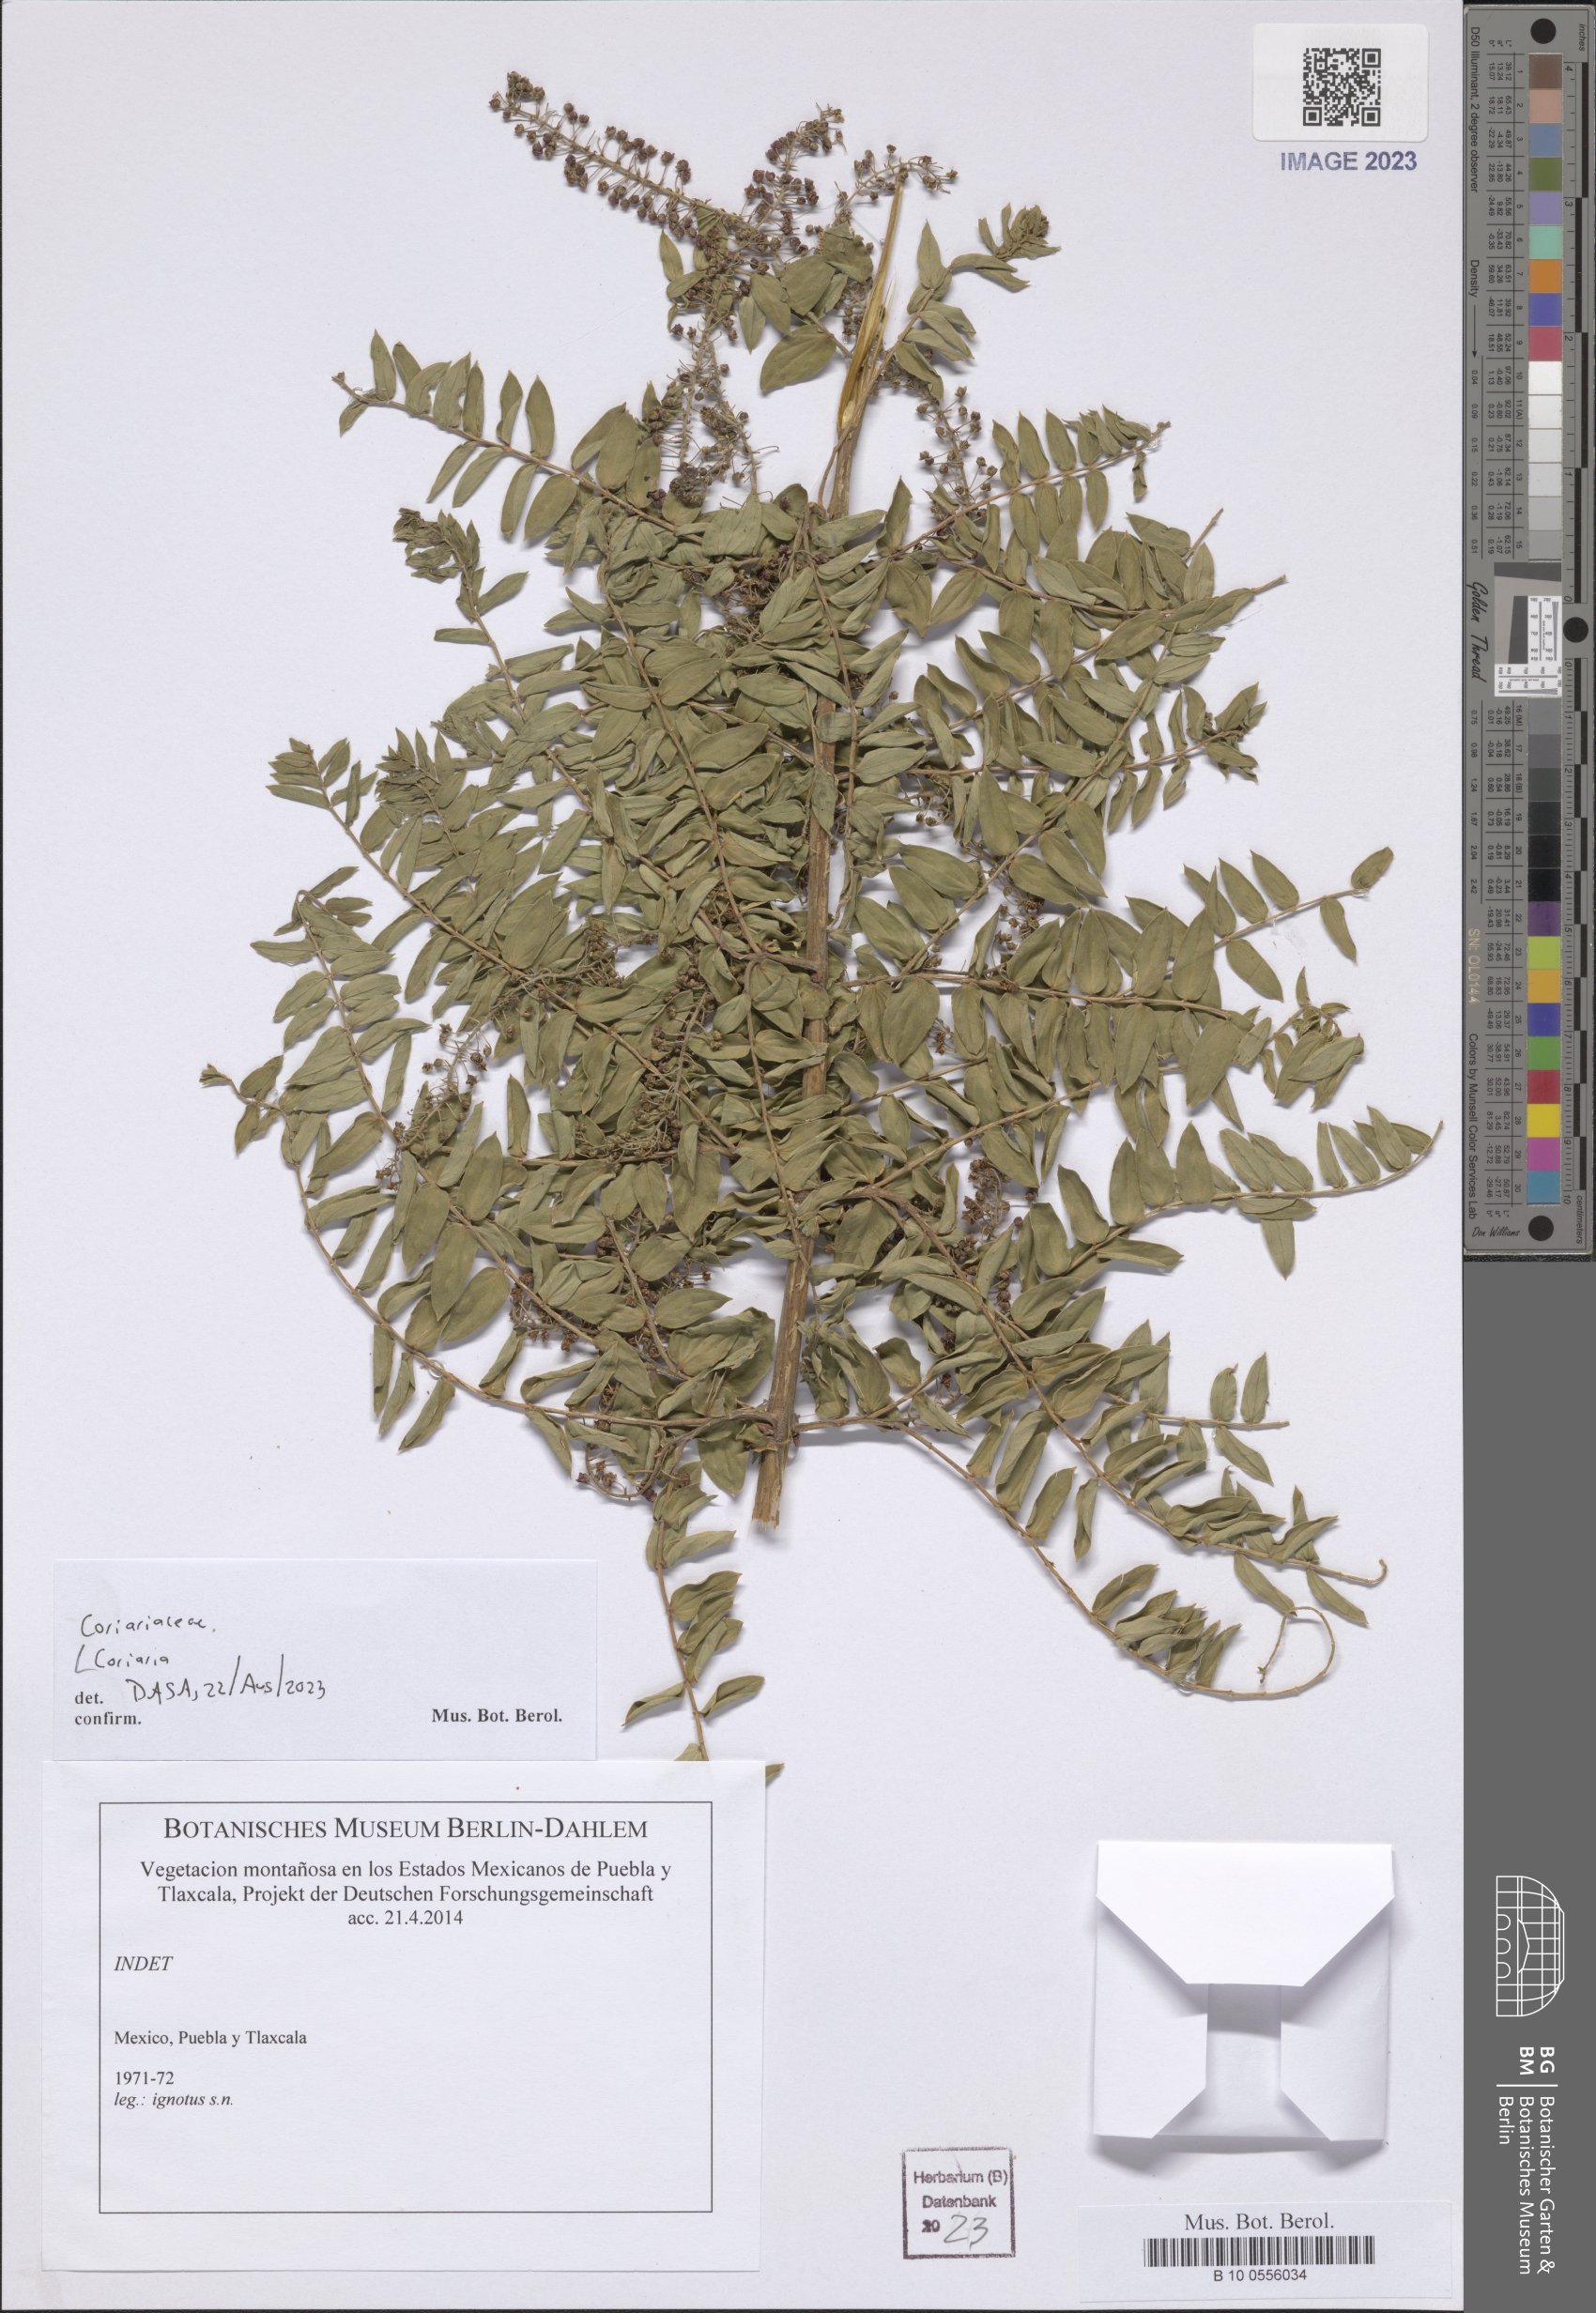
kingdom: Plantae
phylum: Tracheophyta
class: Magnoliopsida
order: Cucurbitales
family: Coriariaceae
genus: Coriaria
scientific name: Coriaria
